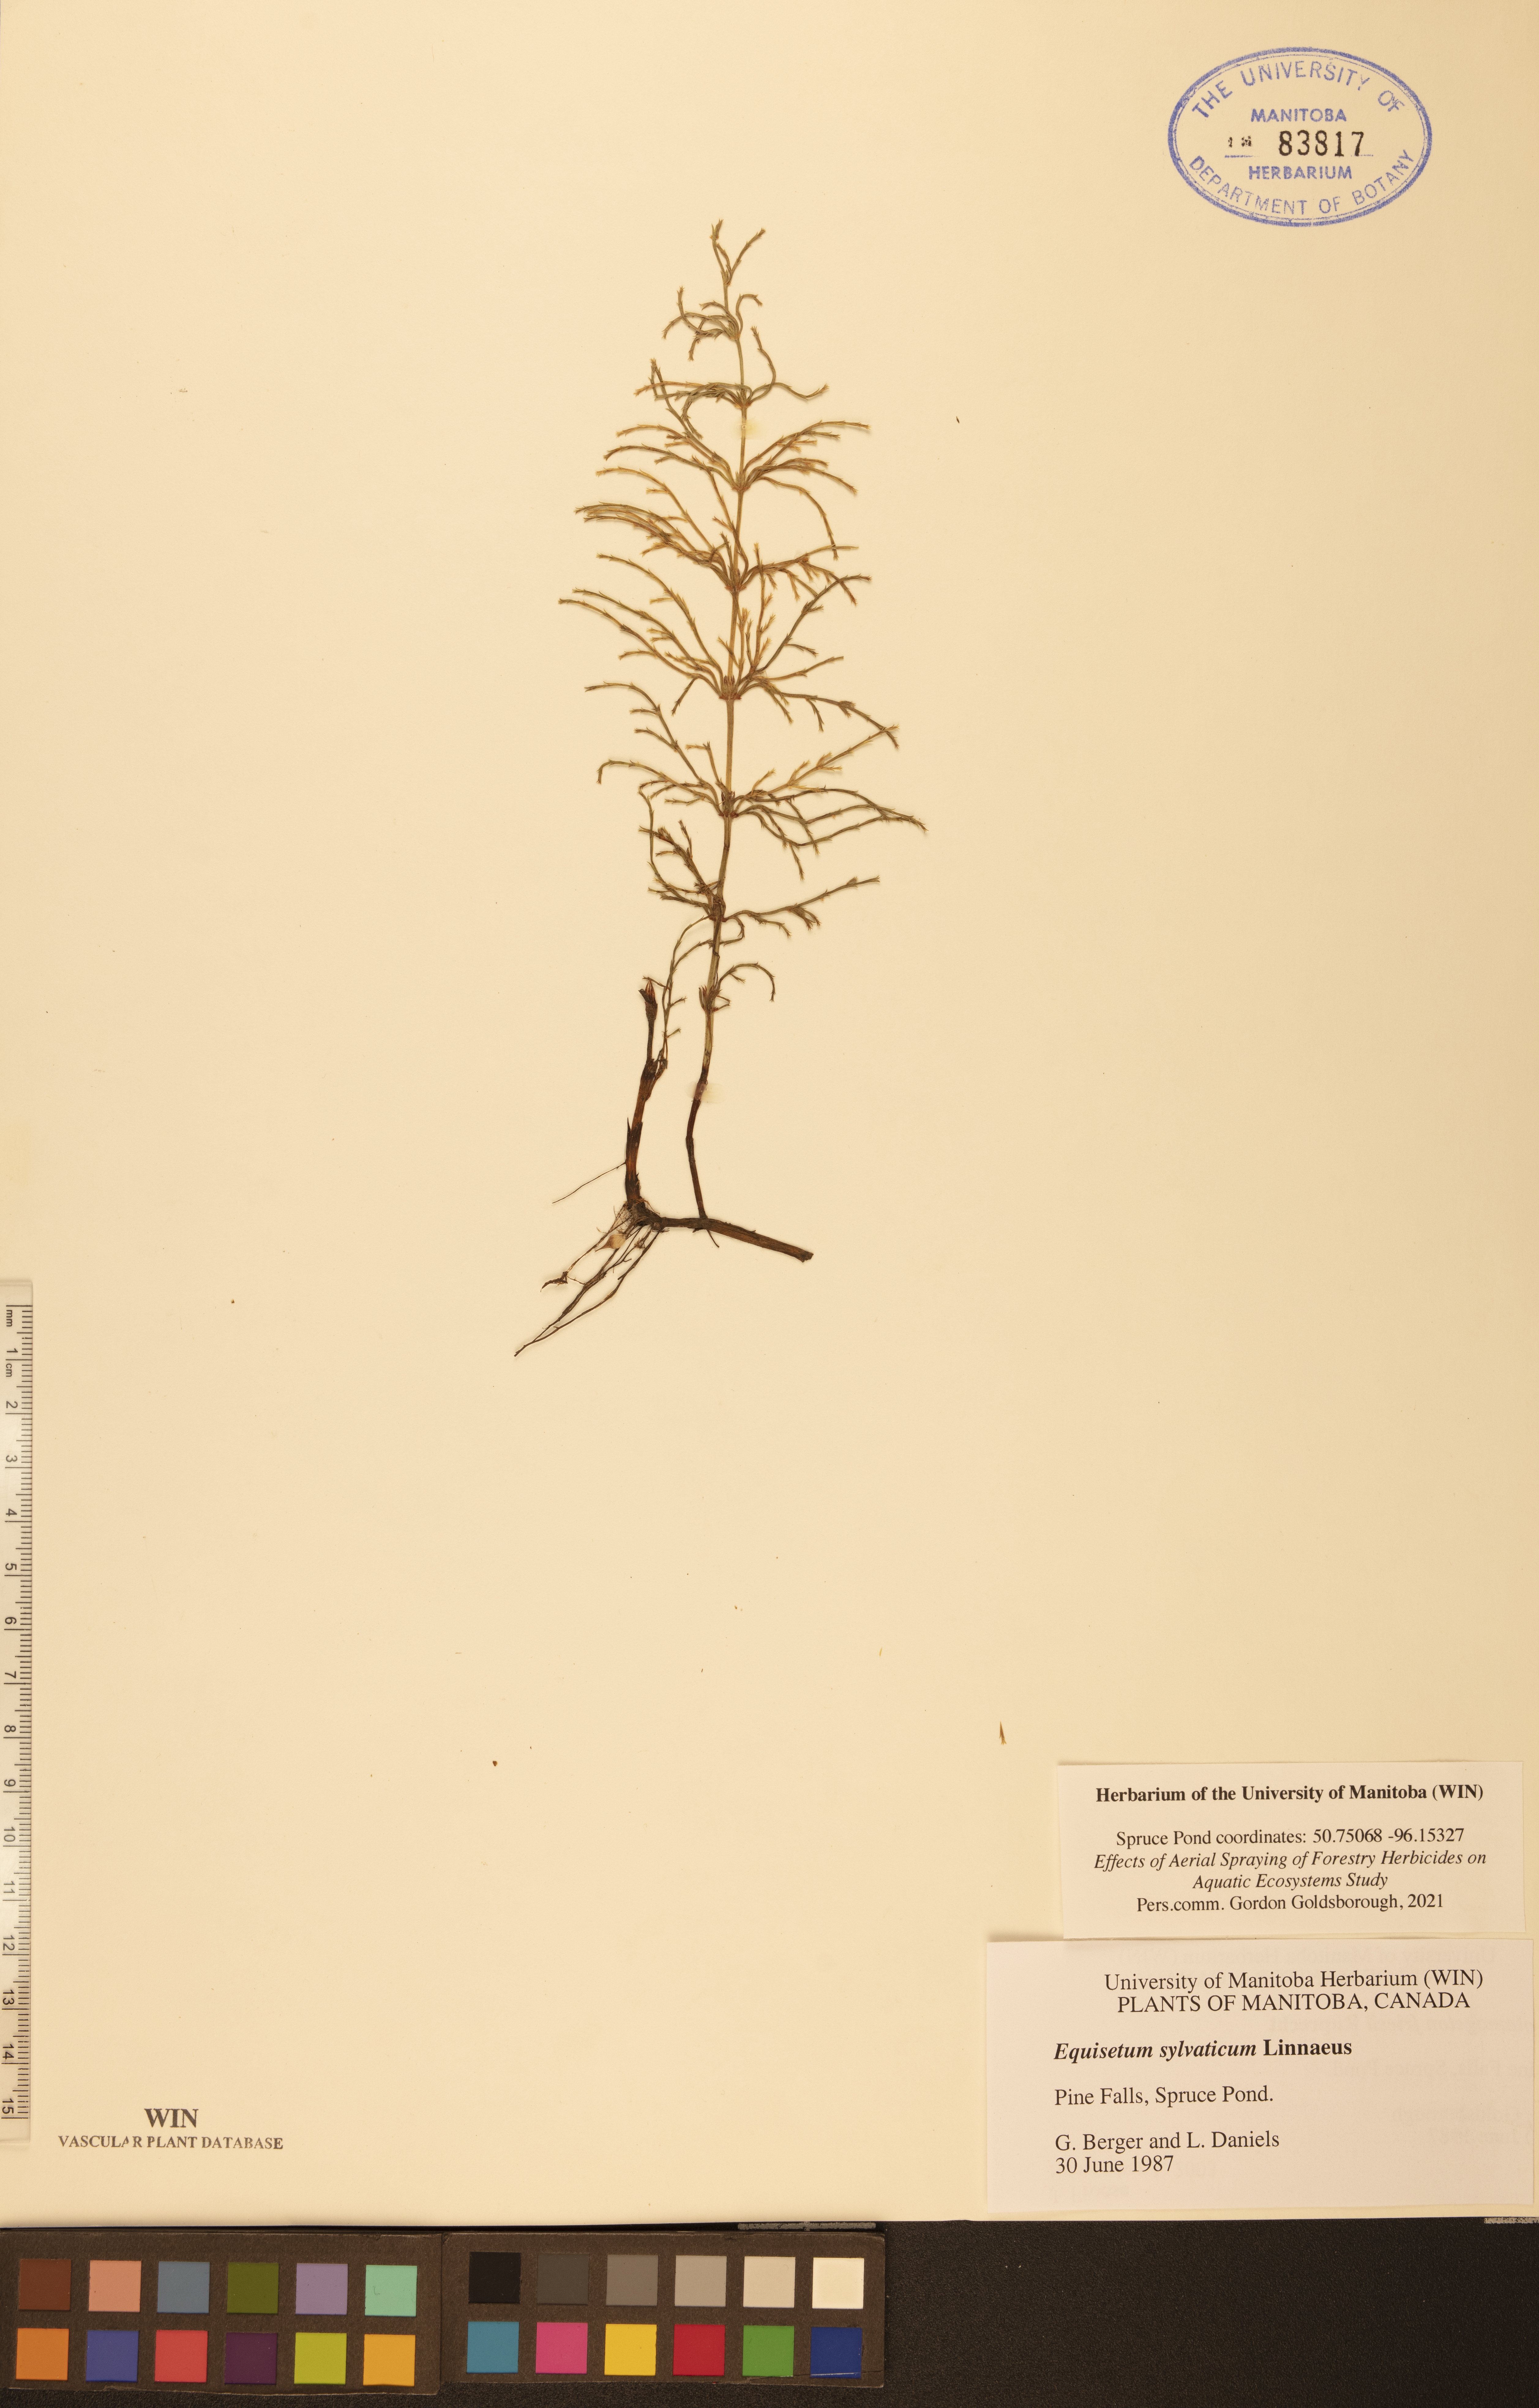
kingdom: Plantae
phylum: Tracheophyta
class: Polypodiopsida
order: Equisetales
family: Equisetaceae
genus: Equisetum
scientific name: Equisetum sylvaticum
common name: Wood horsetail
